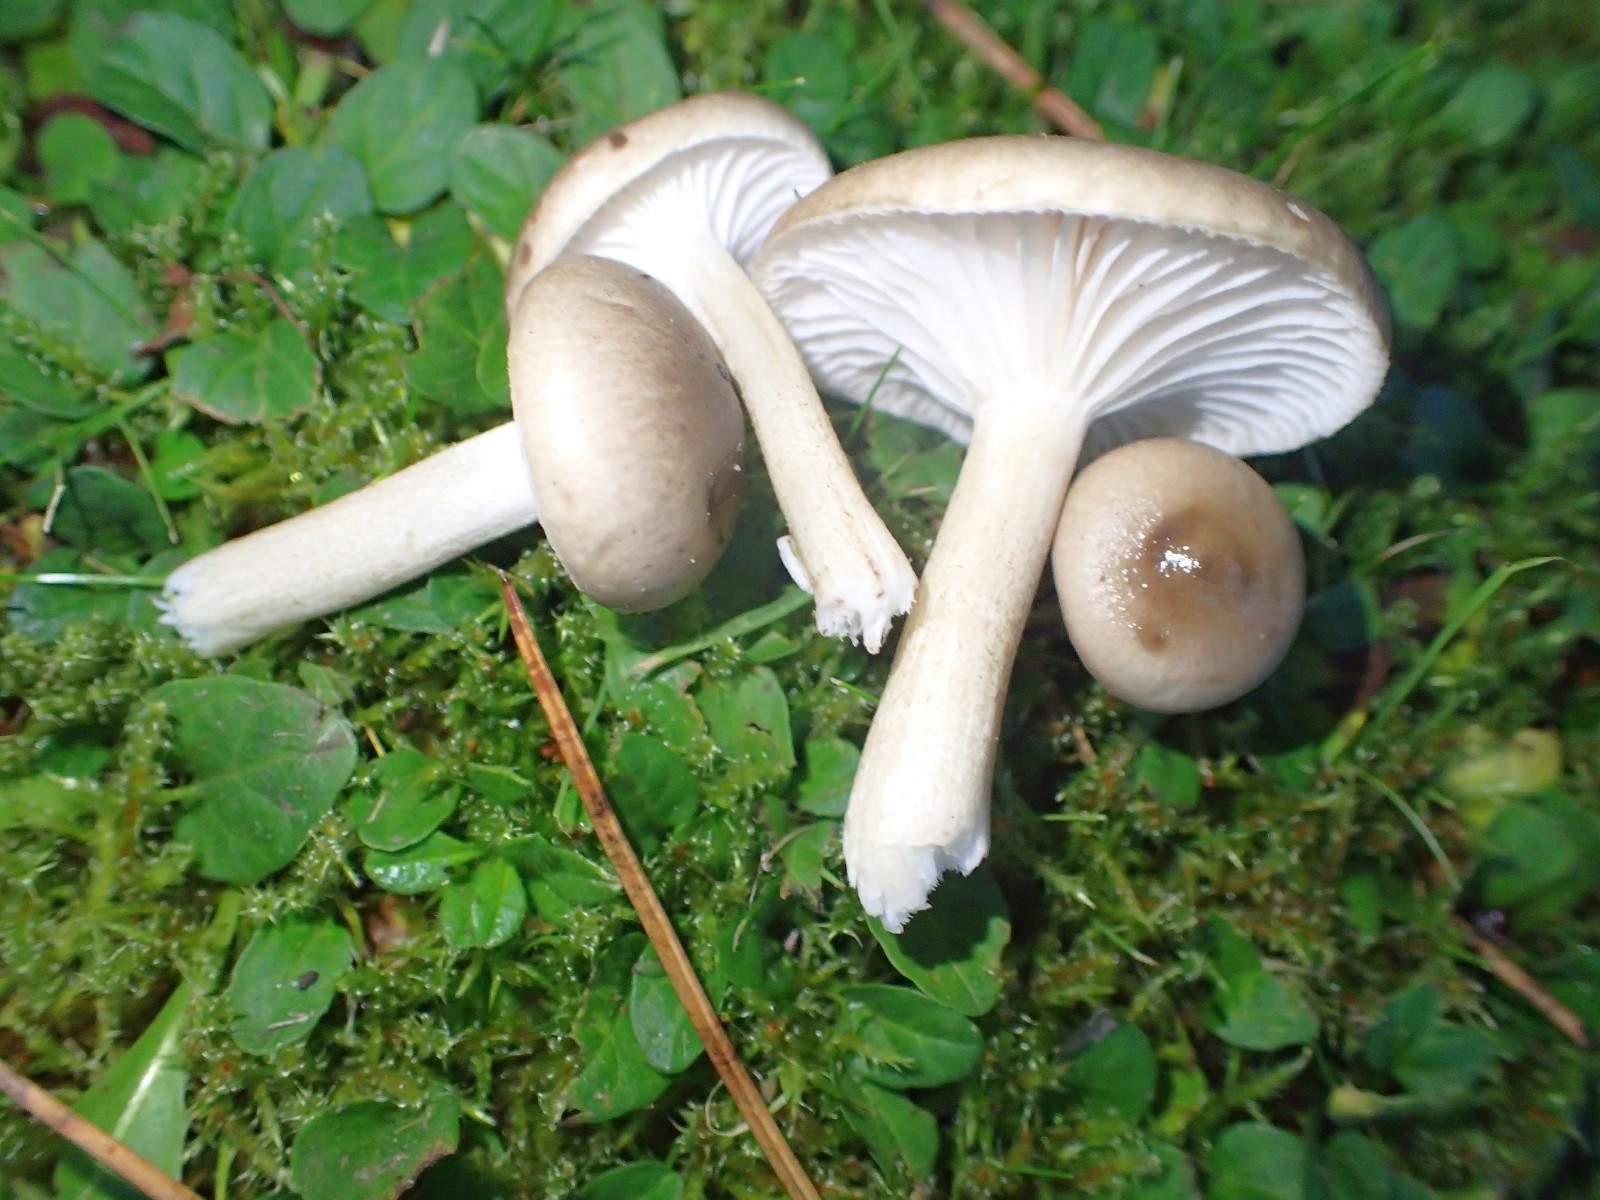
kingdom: Fungi
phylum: Basidiomycota
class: Agaricomycetes
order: Agaricales
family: Hygrophoraceae
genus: Hygrophorus
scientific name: Hygrophorus suaveolens
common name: parfumeret sneglehat
